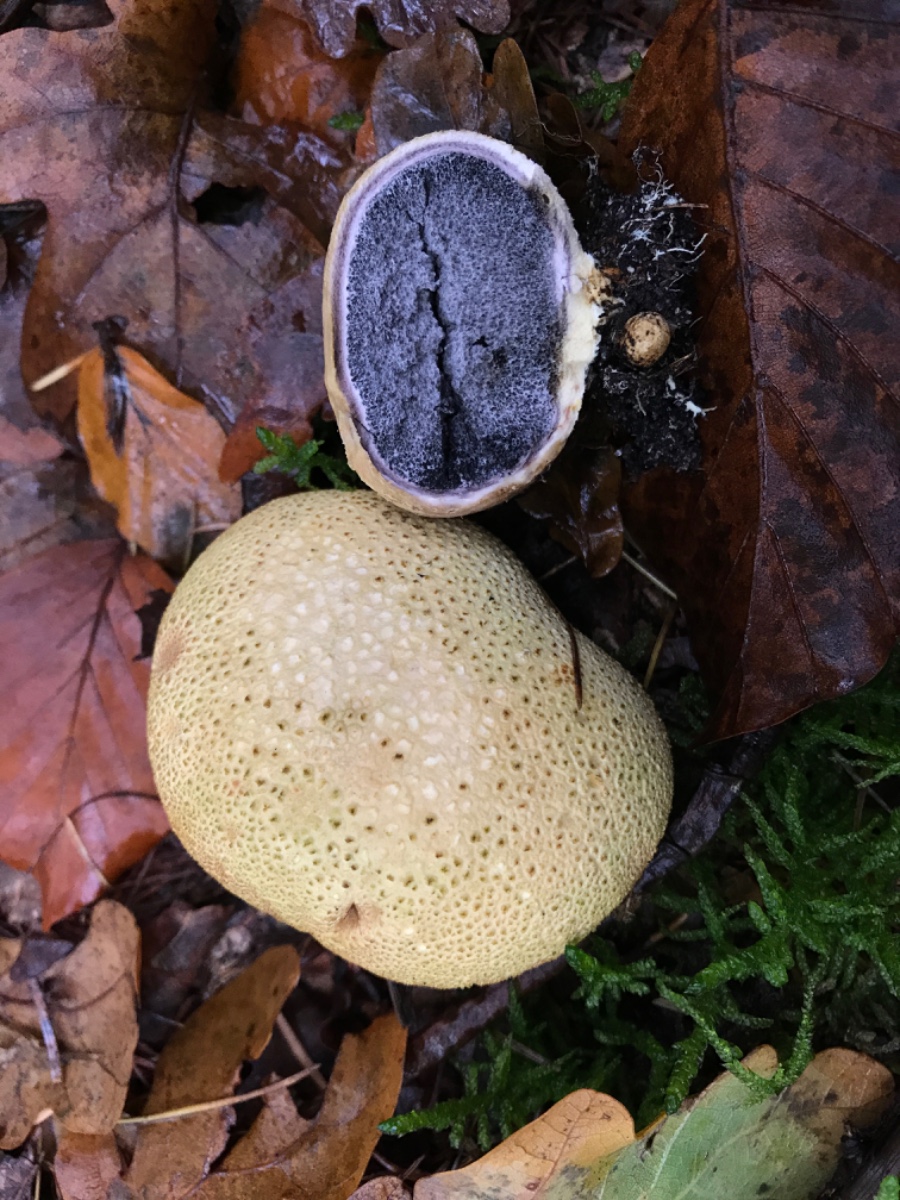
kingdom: Fungi
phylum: Basidiomycota
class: Agaricomycetes
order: Boletales
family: Sclerodermataceae
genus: Scleroderma
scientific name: Scleroderma citrinum
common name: almindelig bruskbold
